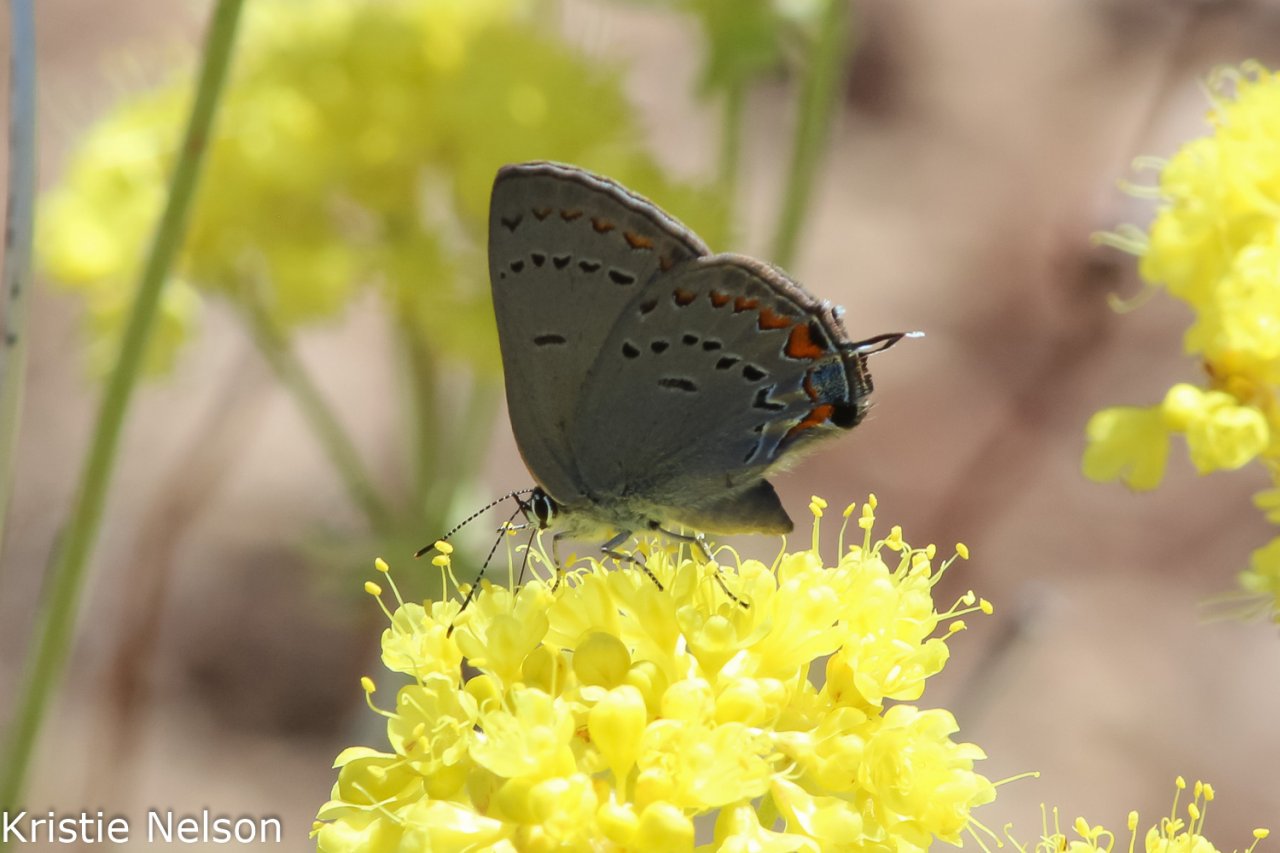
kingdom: Animalia
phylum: Arthropoda
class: Insecta
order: Lepidoptera
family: Lycaenidae
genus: Strymon
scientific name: Strymon acadica
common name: California Hairstreak
